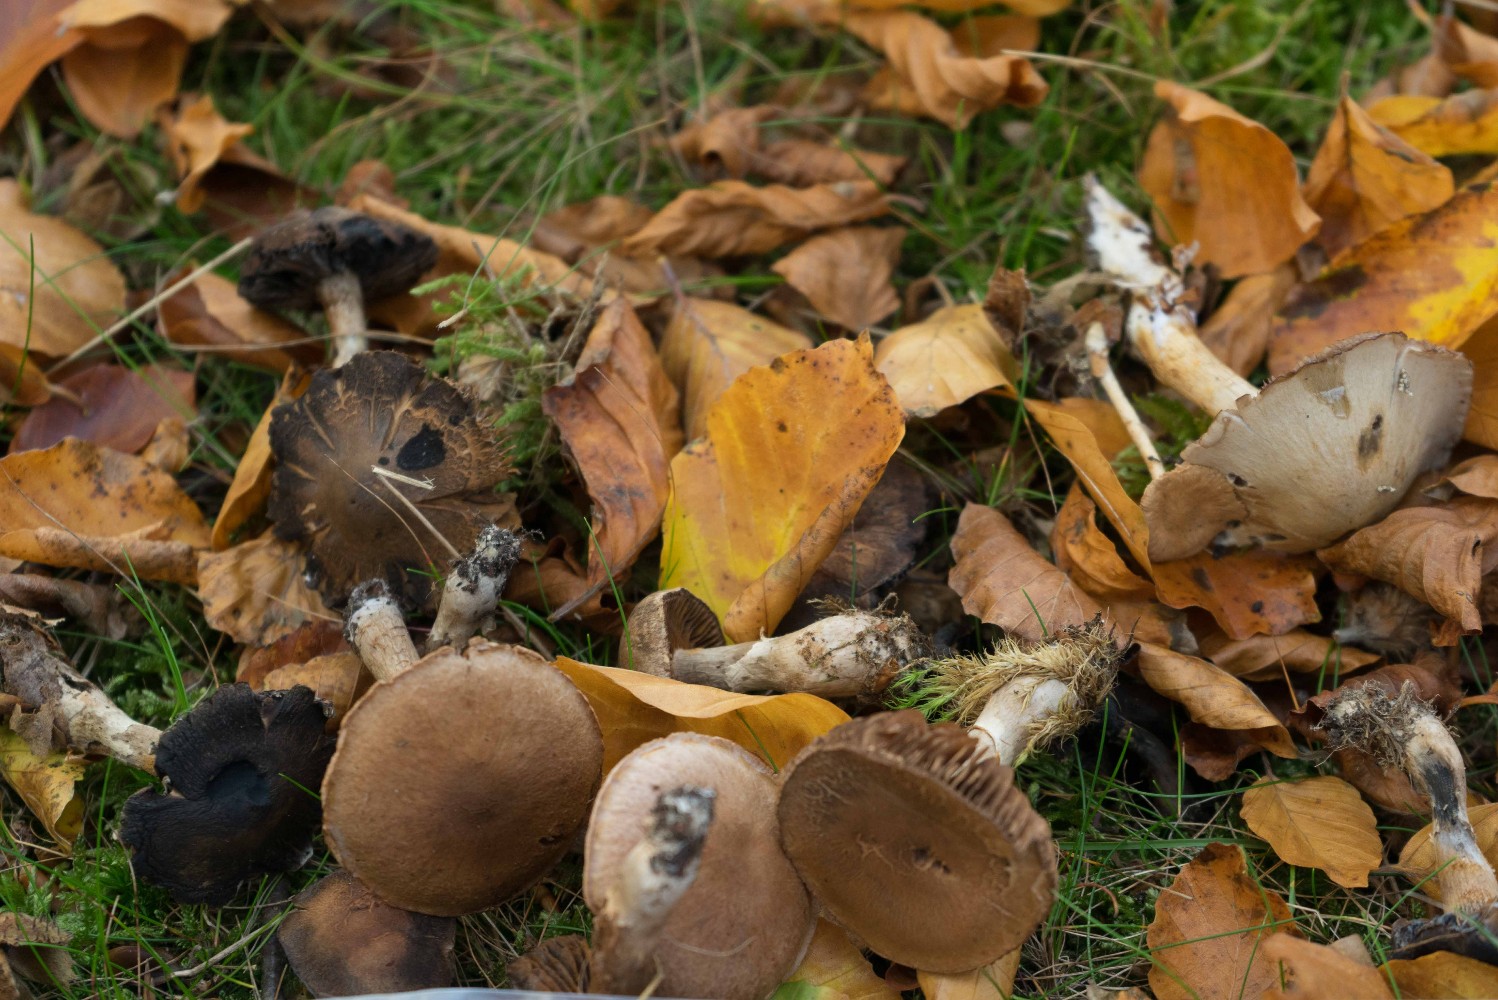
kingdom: Fungi
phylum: Basidiomycota
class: Agaricomycetes
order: Agaricales
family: Cortinariaceae
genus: Cortinarius
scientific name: Cortinarius
